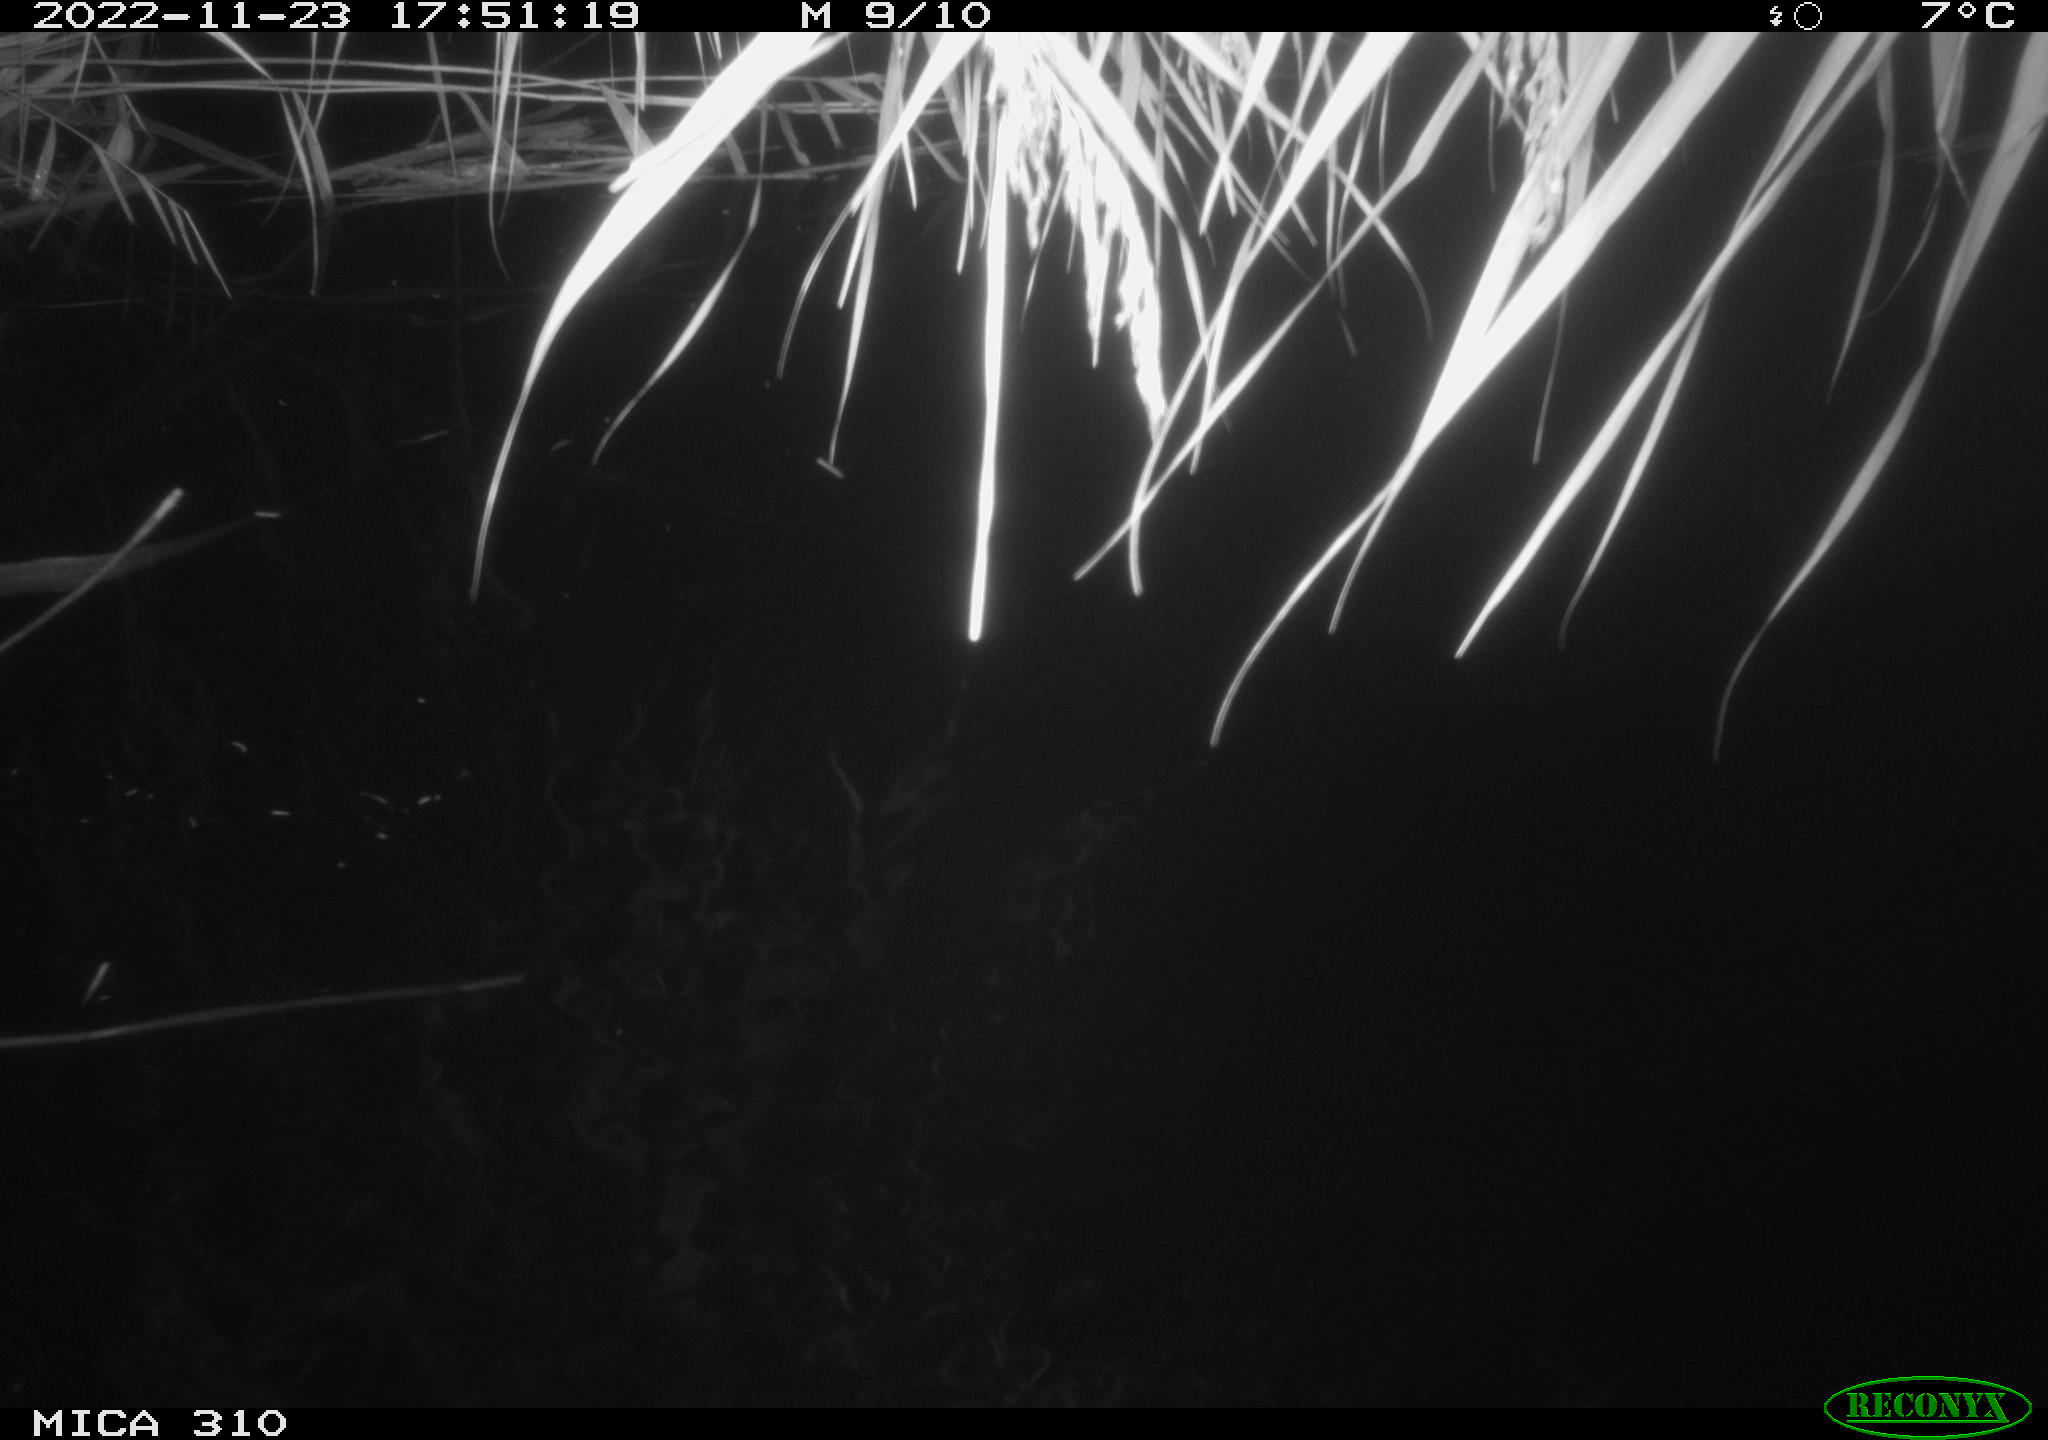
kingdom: Animalia
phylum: Chordata
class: Mammalia
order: Rodentia
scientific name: Rodentia
